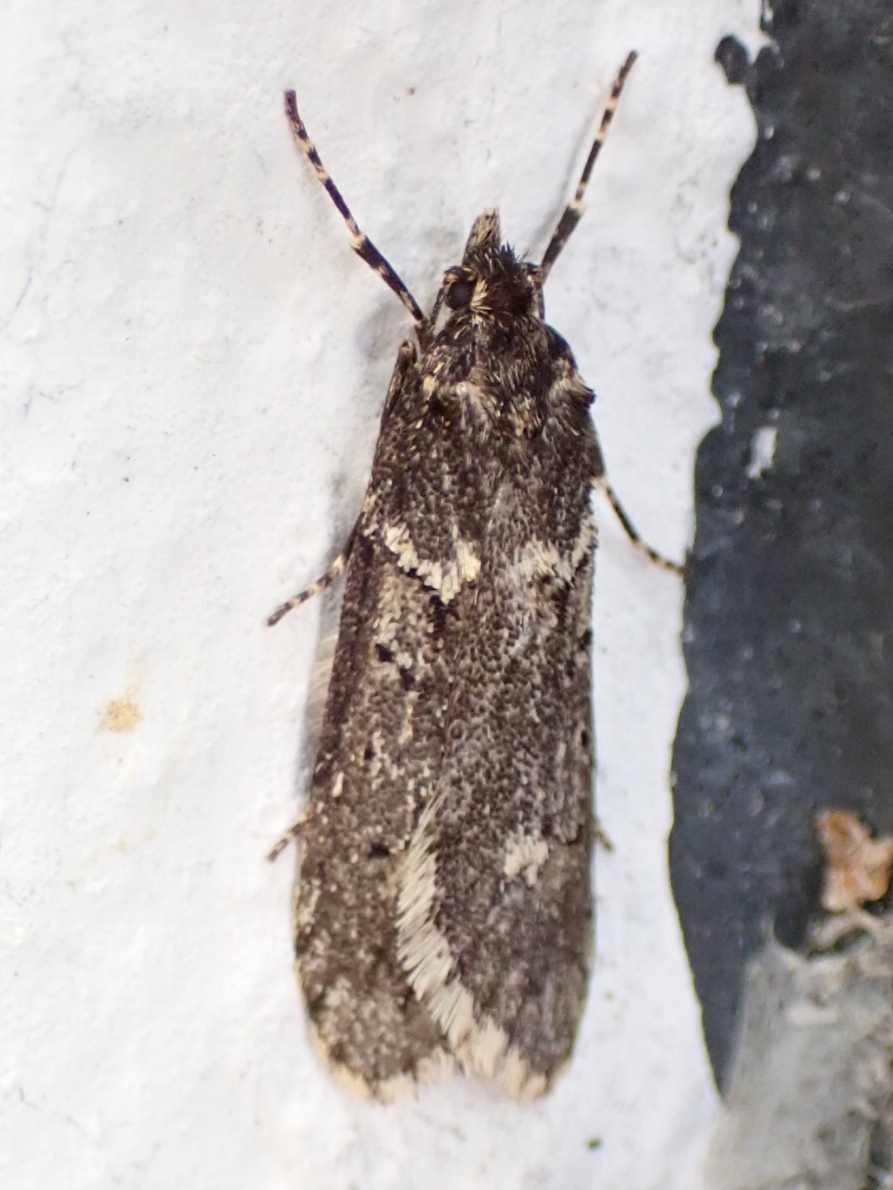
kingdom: Animalia
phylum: Arthropoda
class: Insecta
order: Lepidoptera
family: Lypusidae
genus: Diurnea
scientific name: Diurnea fagella
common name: Bøgeprydvinge
